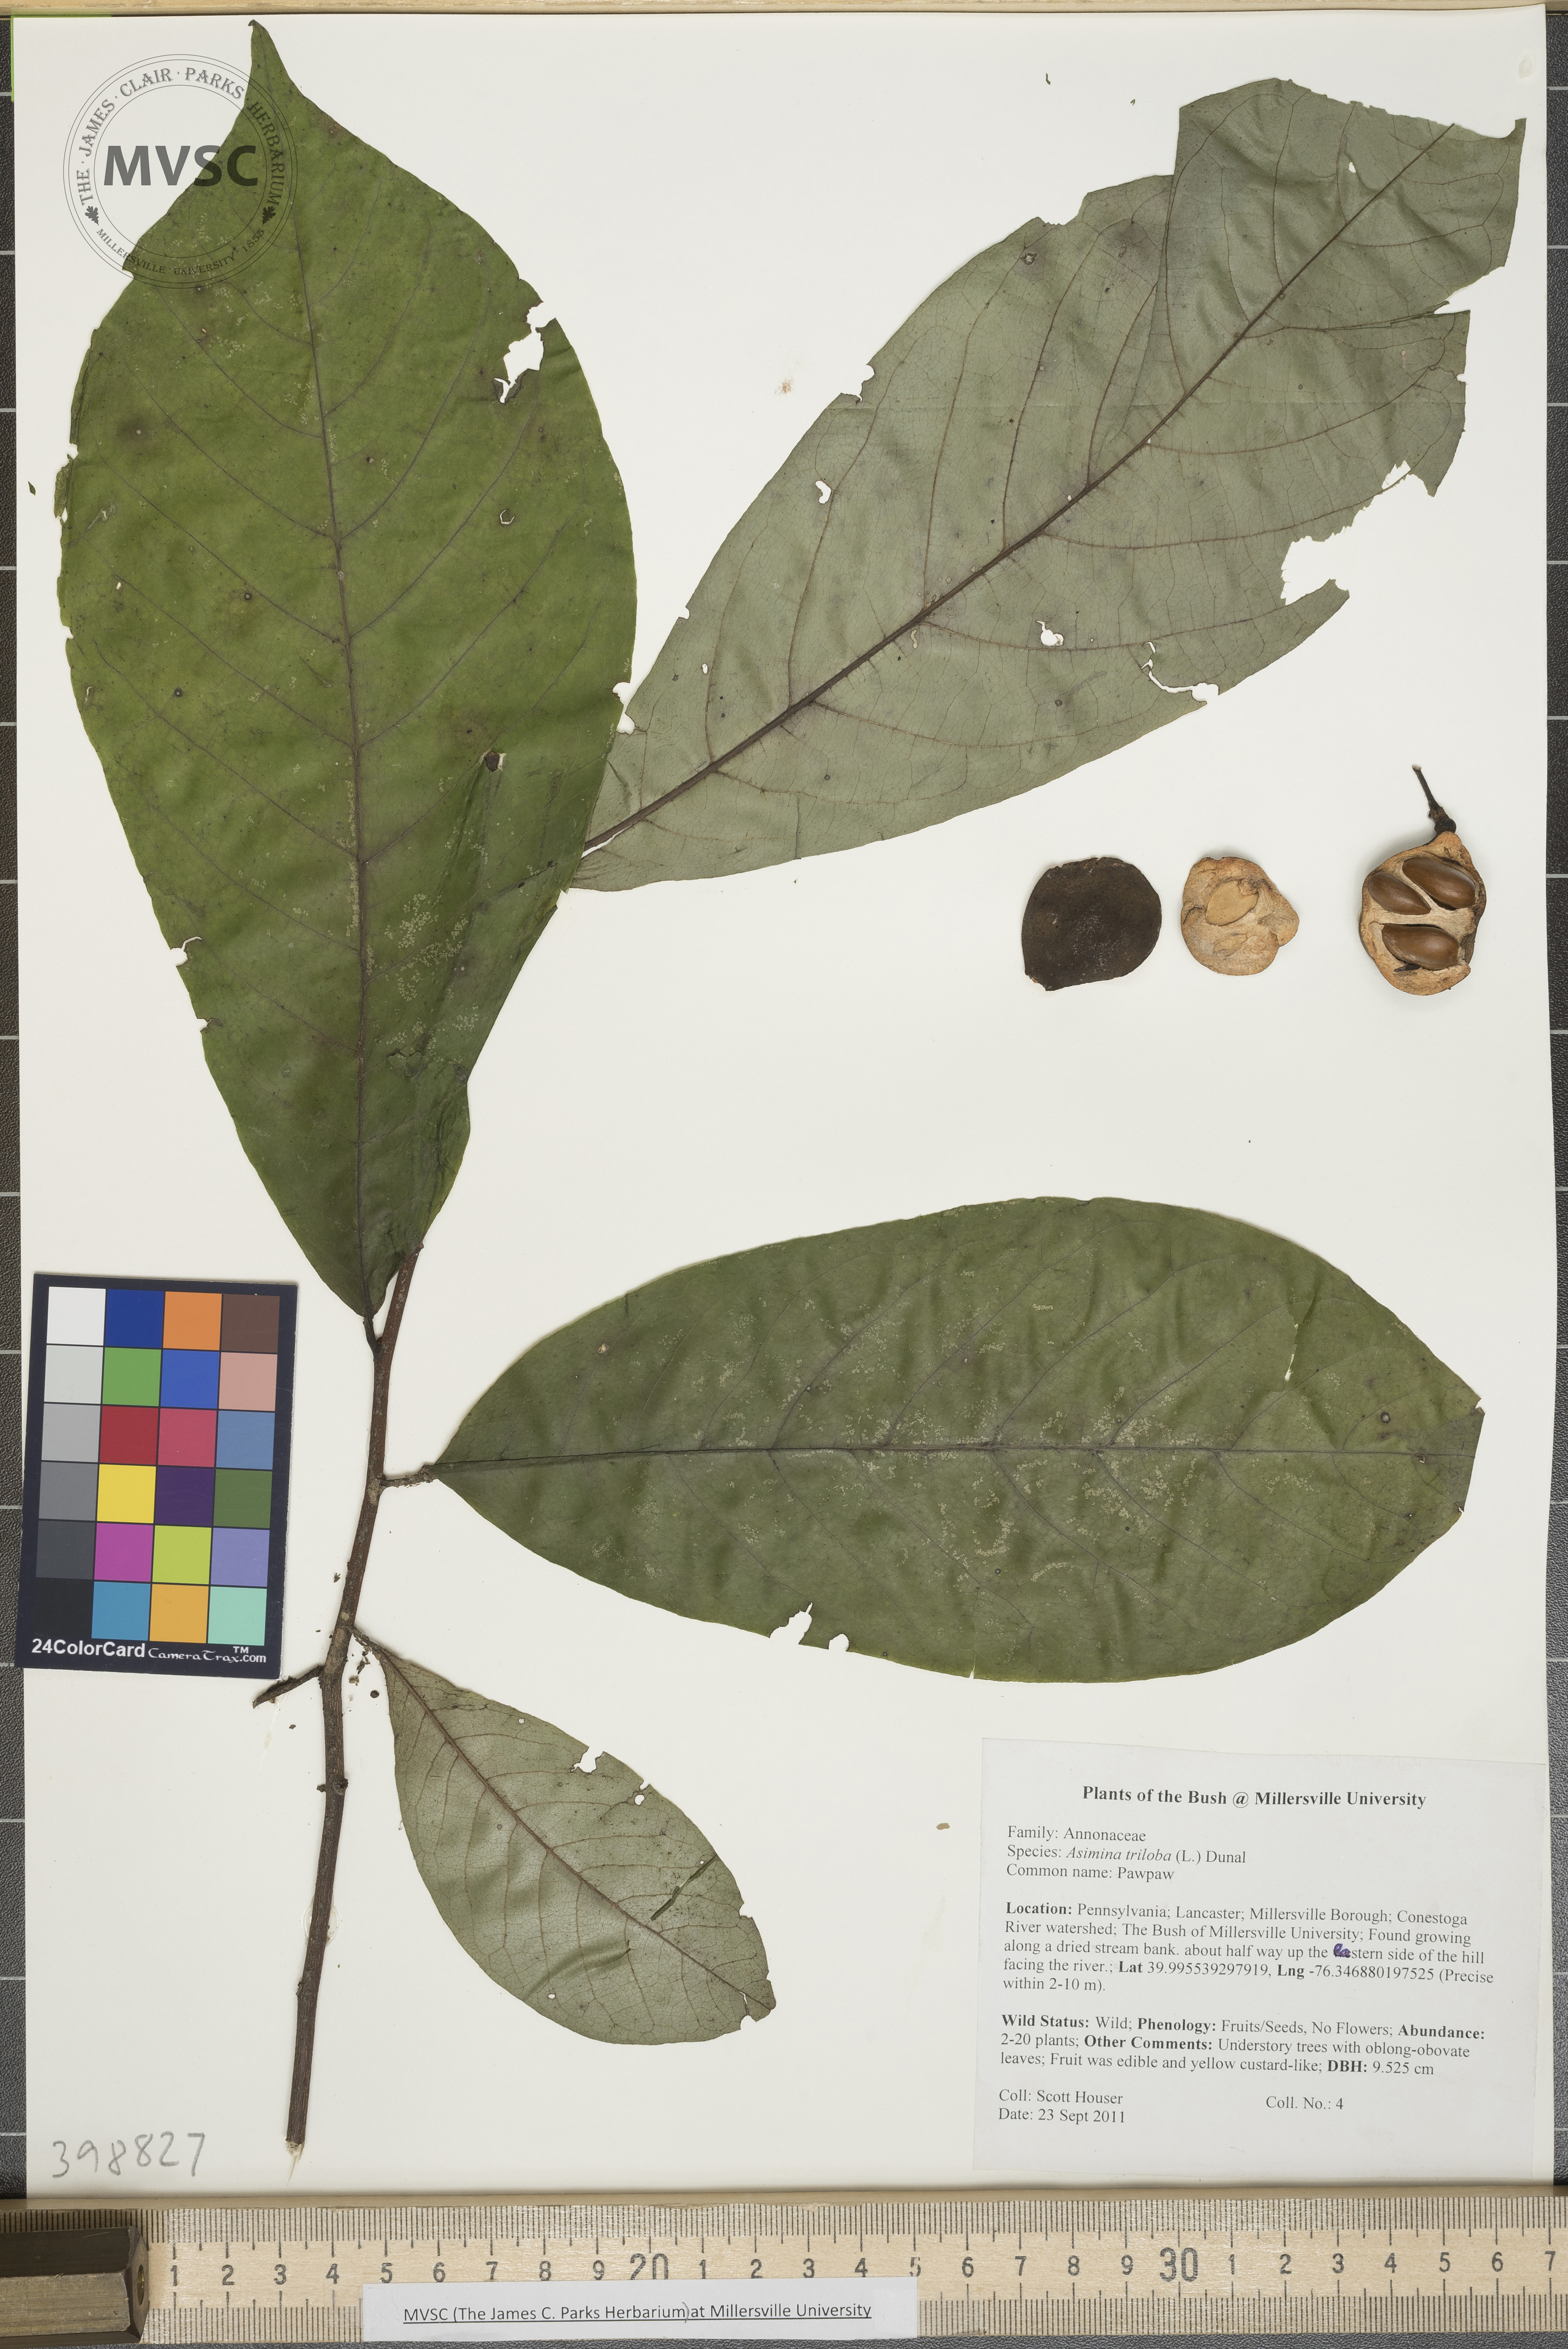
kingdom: Plantae
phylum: Tracheophyta
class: Magnoliopsida
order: Magnoliales
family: Annonaceae
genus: Asimina
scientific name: Asimina triloba
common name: Pawpaw
